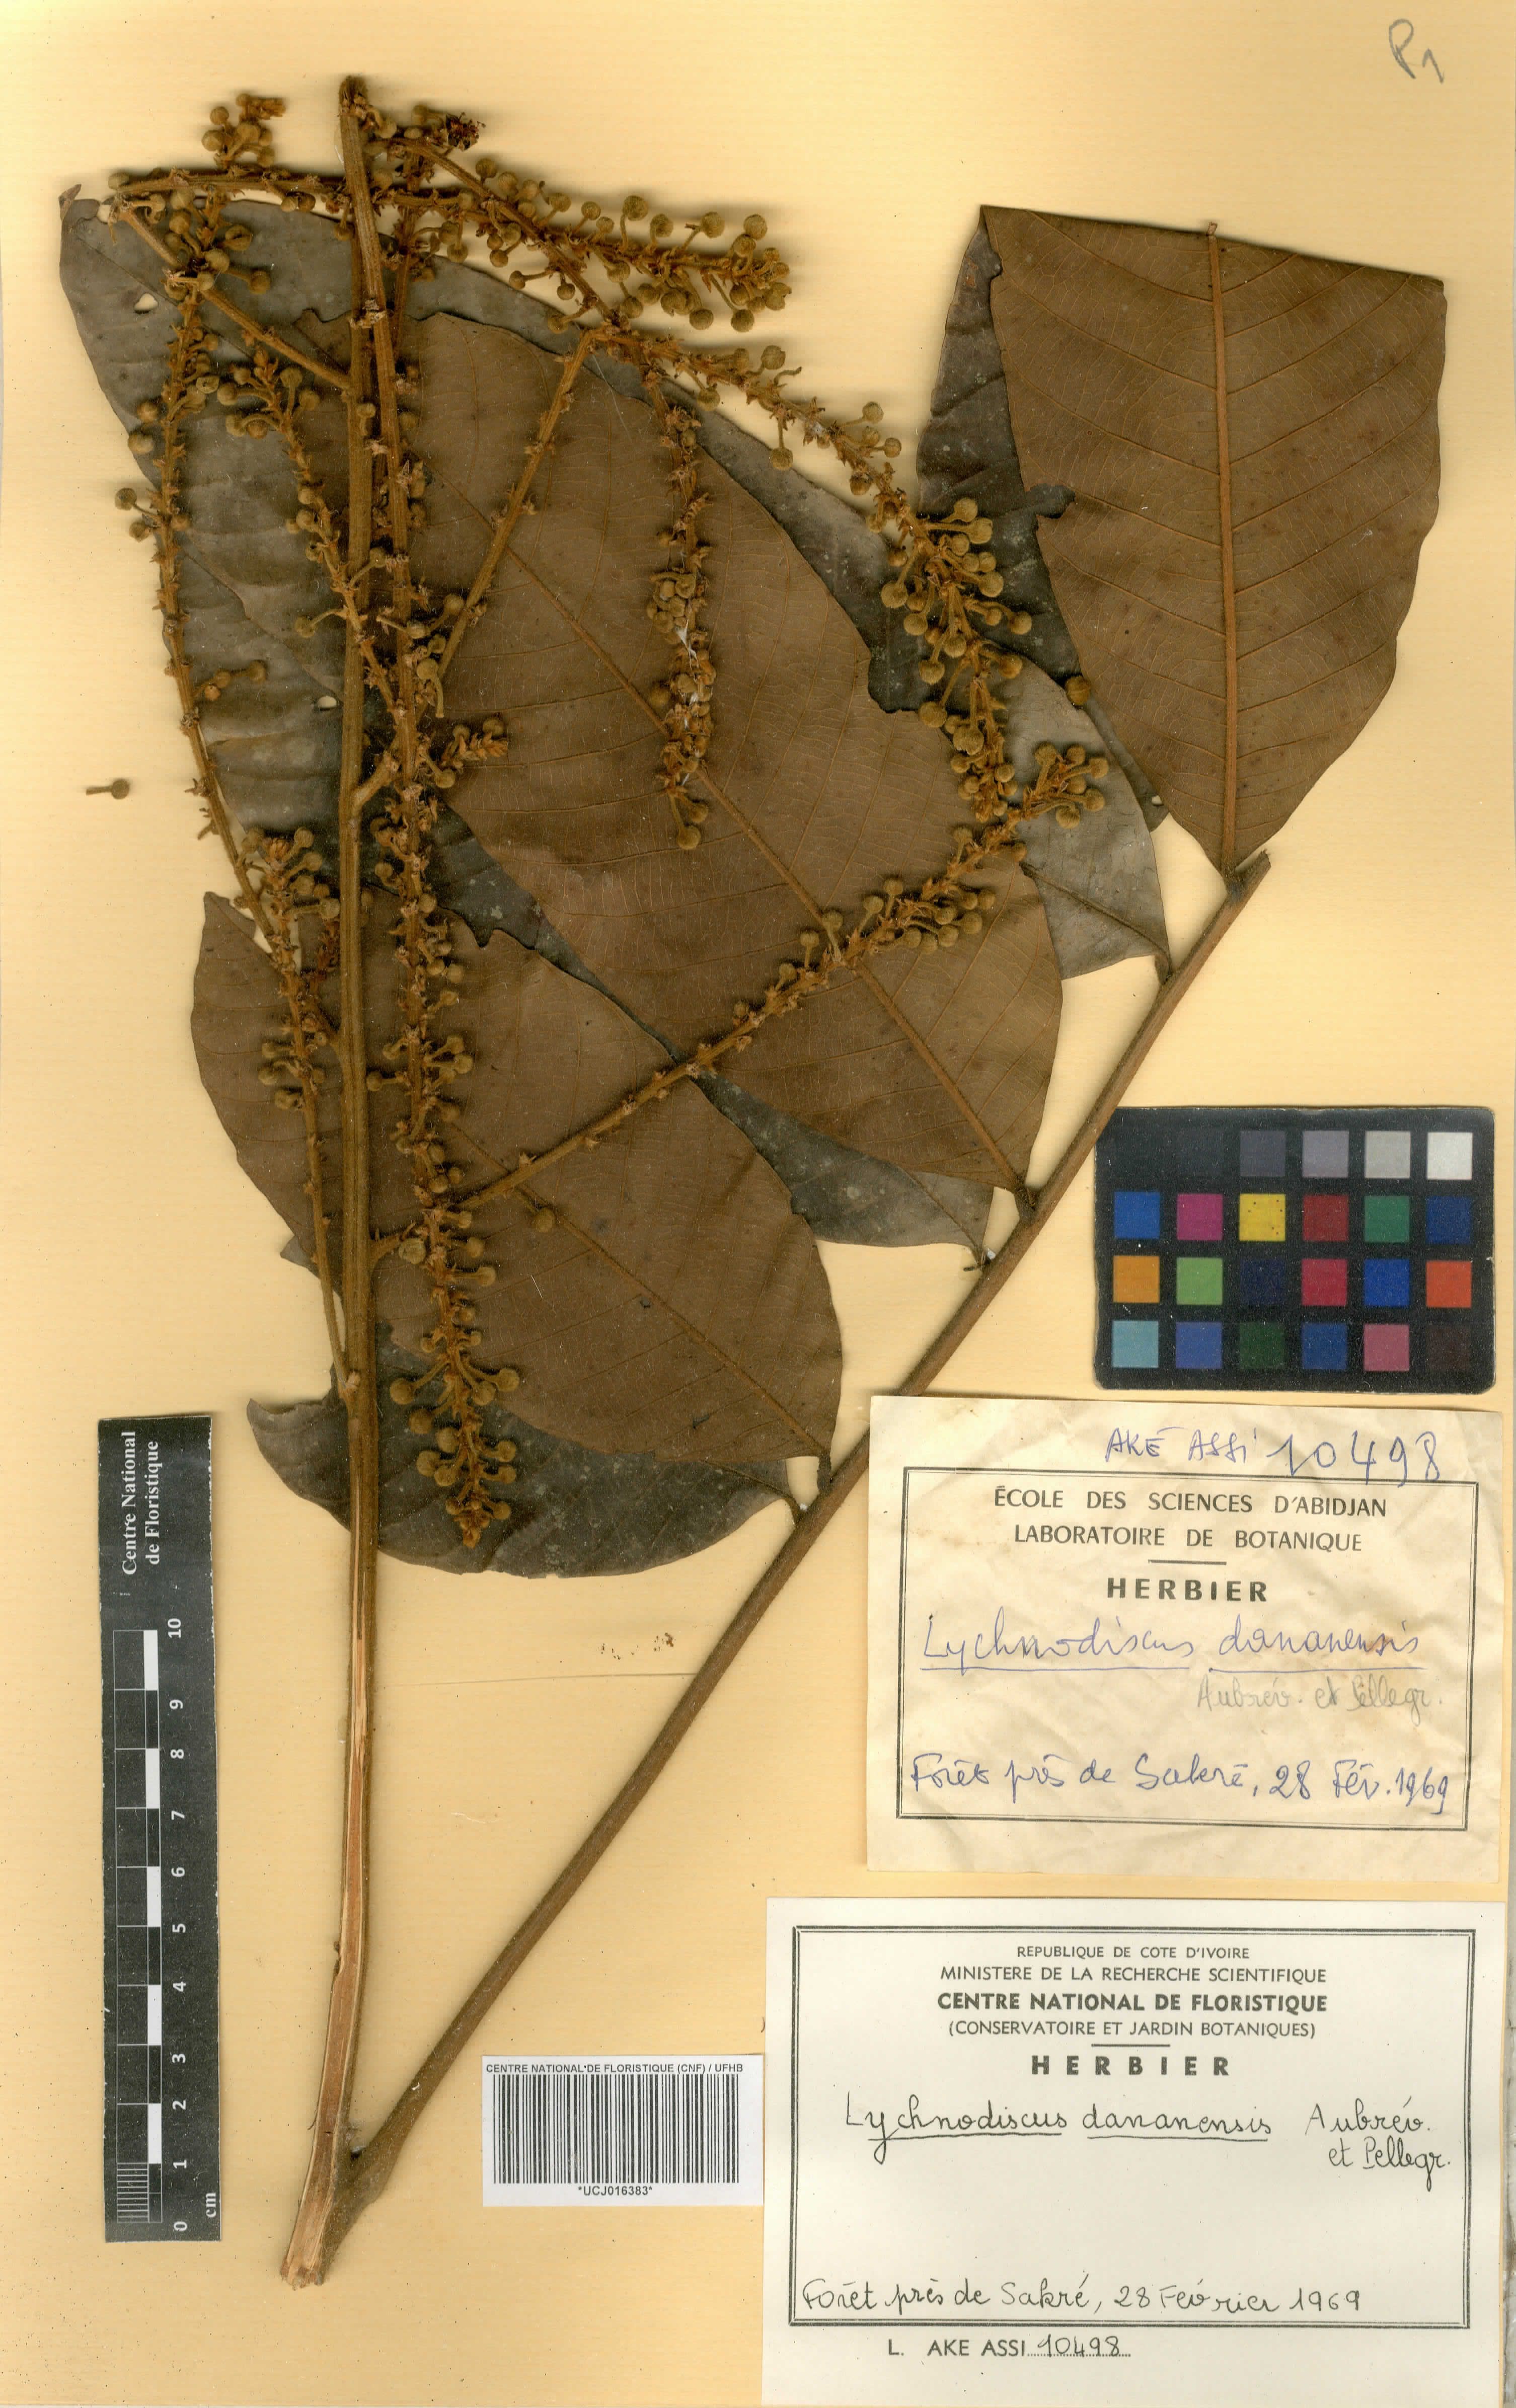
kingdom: Plantae
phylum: Tracheophyta
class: Magnoliopsida
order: Sapindales
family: Sapindaceae
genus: Lychnodiscus
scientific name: Lychnodiscus dananensis
